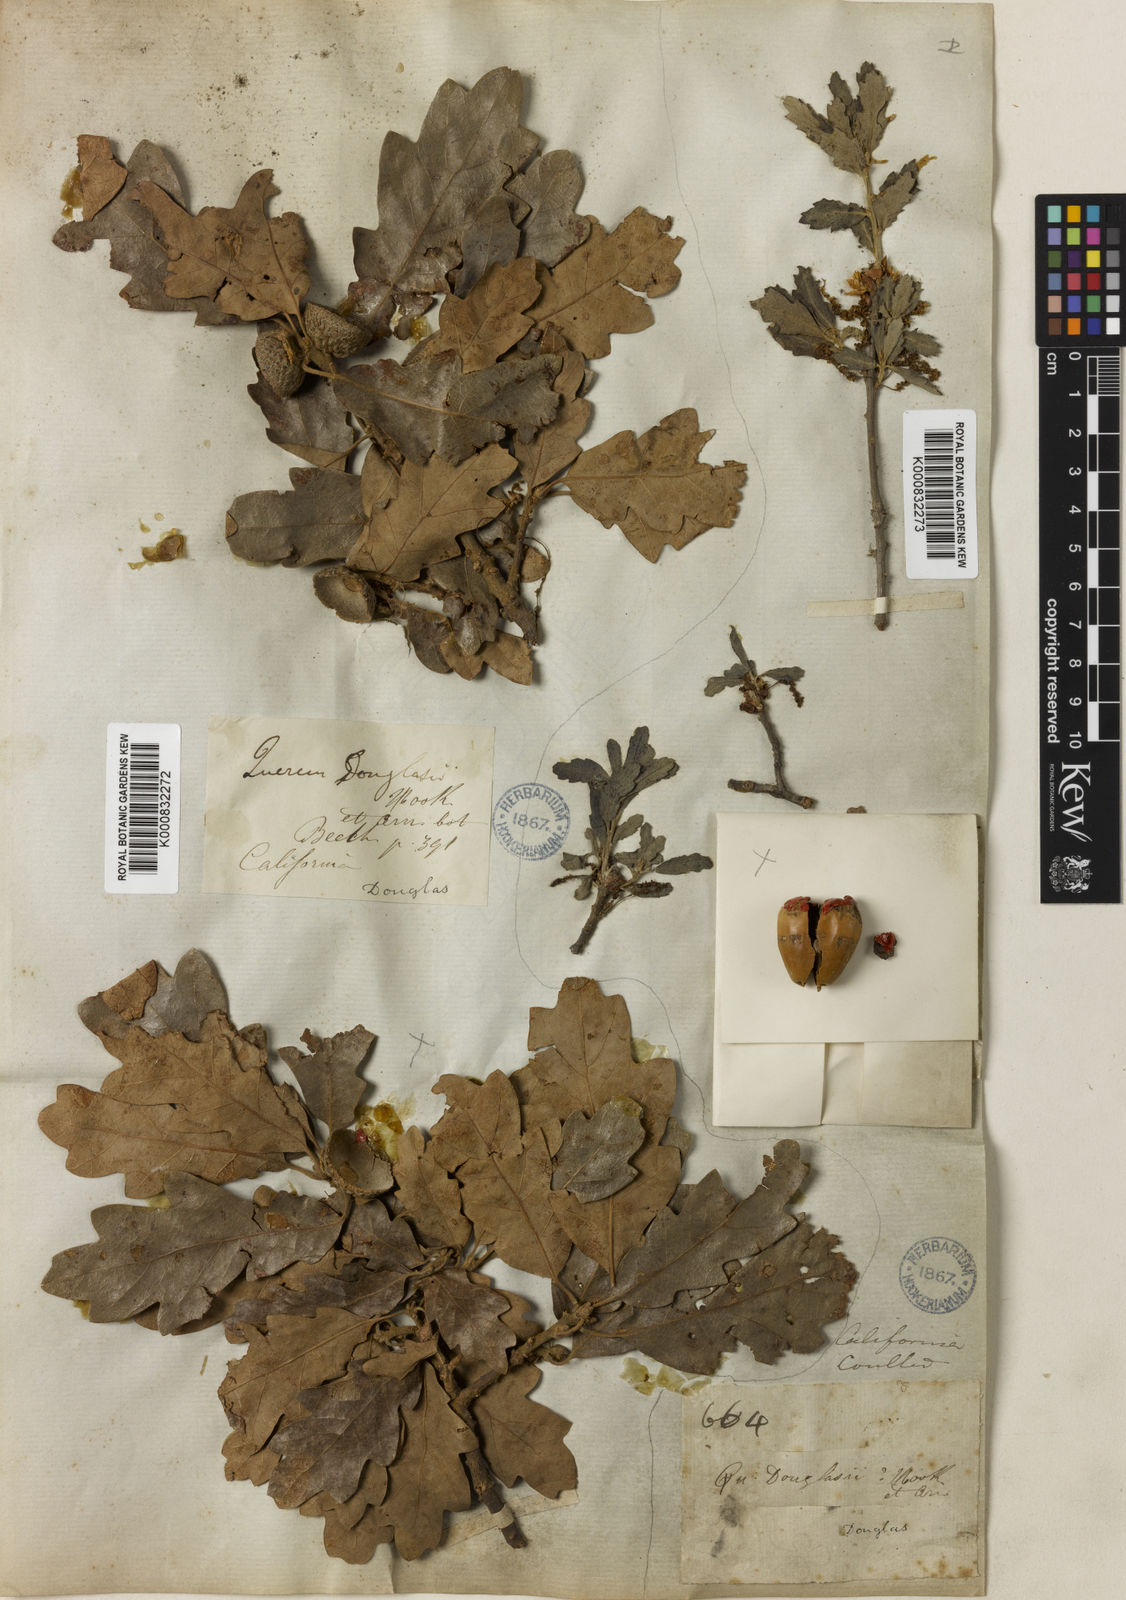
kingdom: Plantae
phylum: Tracheophyta
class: Magnoliopsida
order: Fagales
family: Fagaceae
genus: Quercus
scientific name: Quercus douglasii
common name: Blue oak
